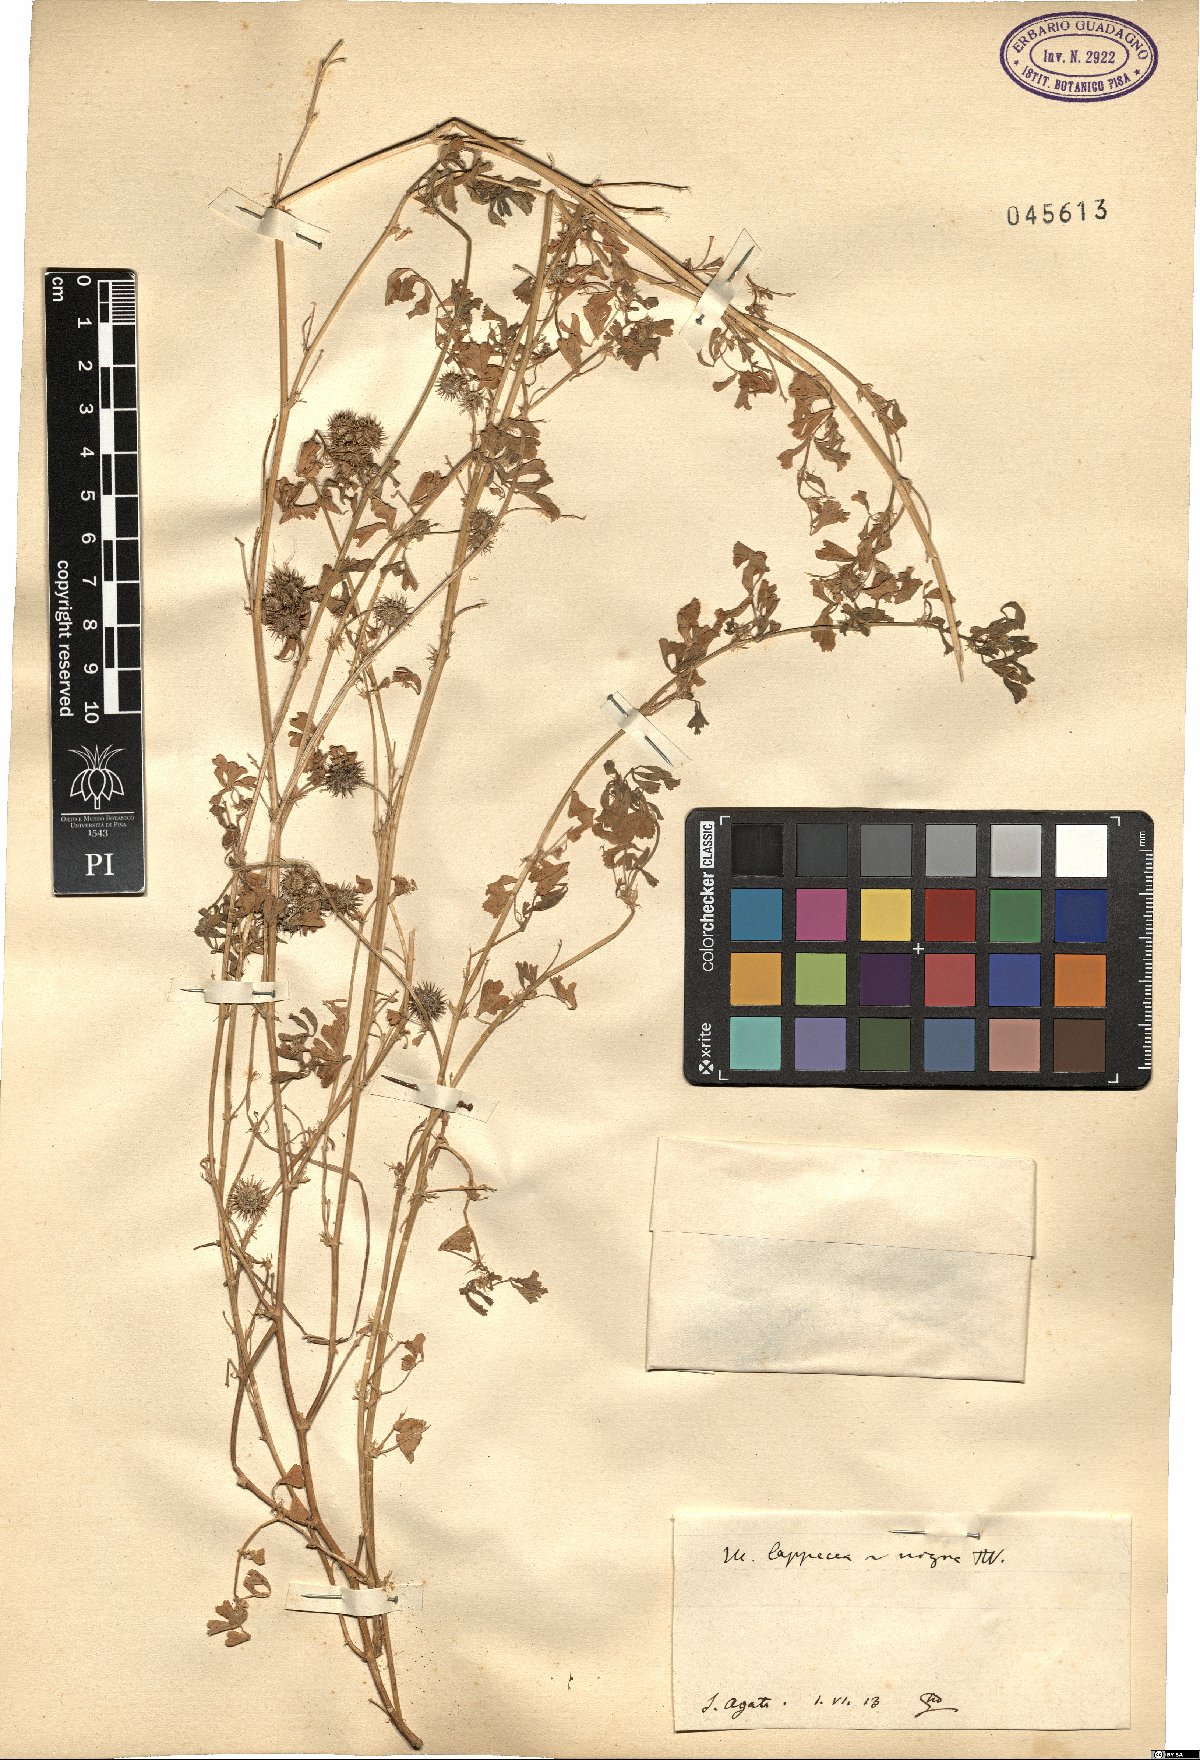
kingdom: Plantae
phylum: Tracheophyta
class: Magnoliopsida
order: Fabales
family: Fabaceae
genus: Medicago
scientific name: Medicago polymorpha
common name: Burclover
